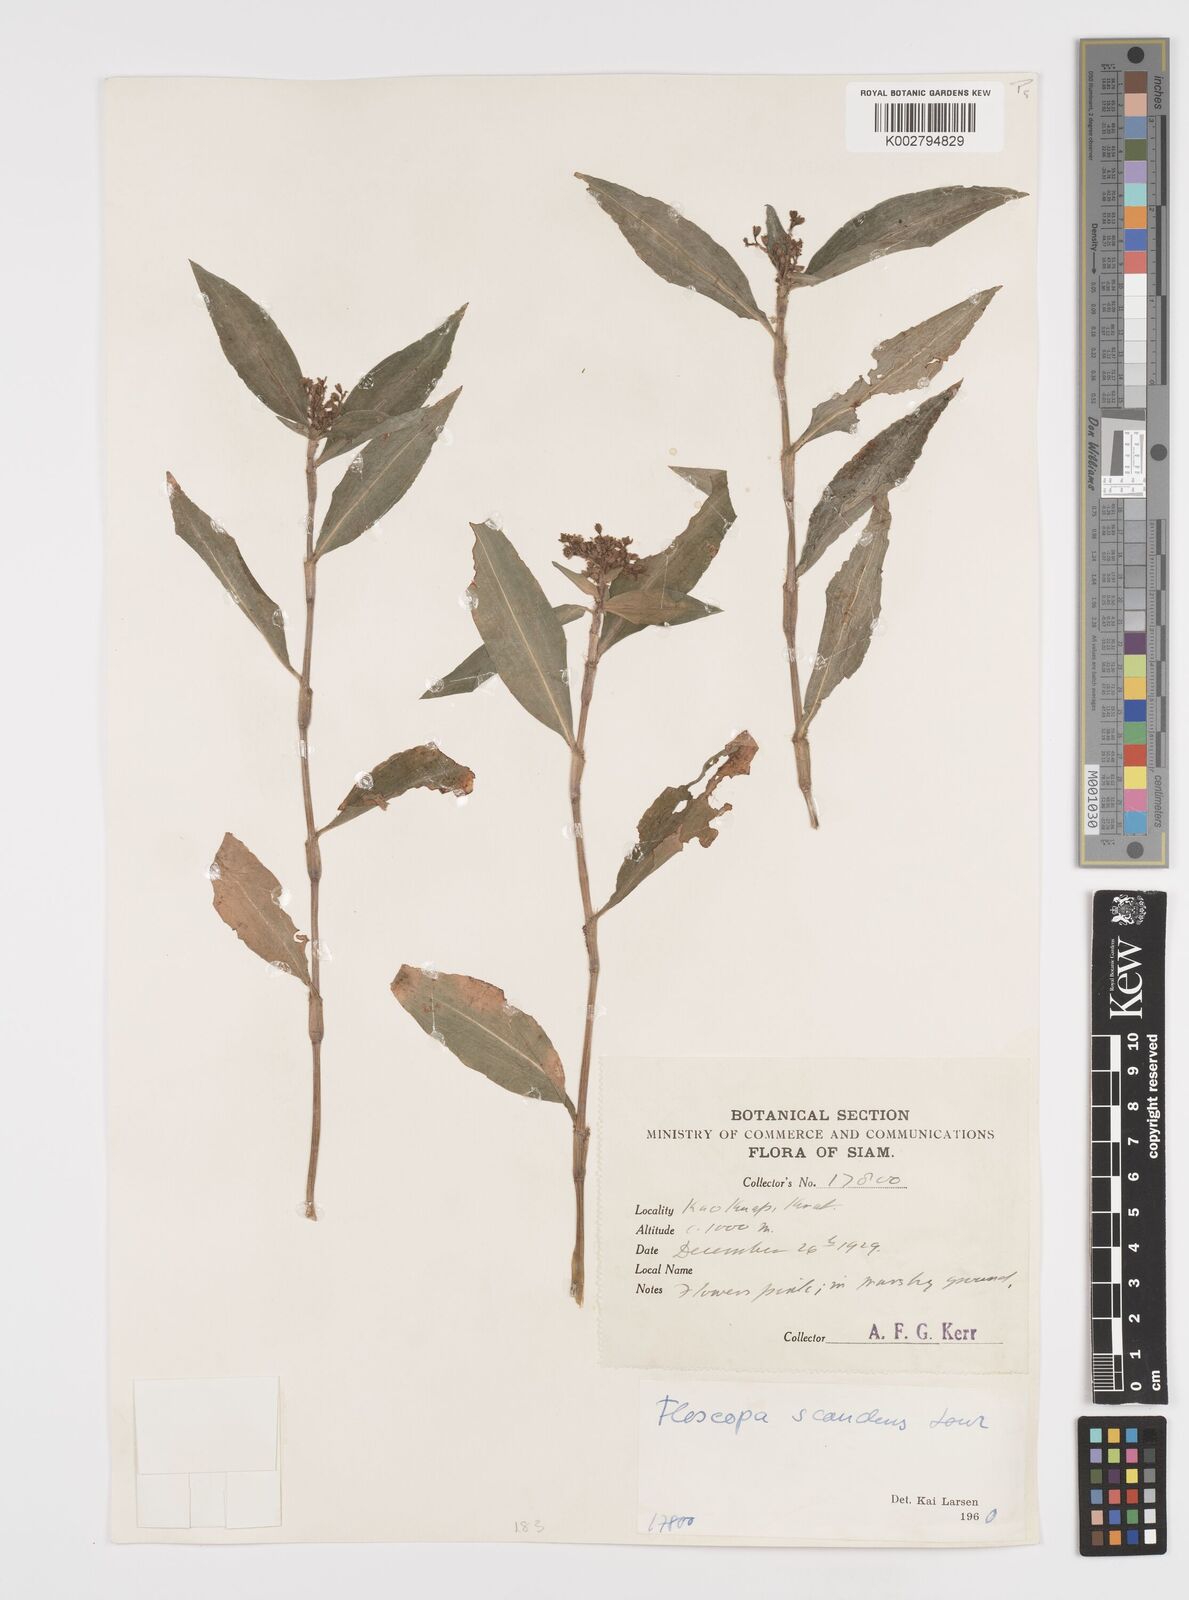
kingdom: Plantae
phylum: Tracheophyta
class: Liliopsida
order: Commelinales
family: Commelinaceae
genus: Floscopa
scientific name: Floscopa scandens
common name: Climbing flower cup
